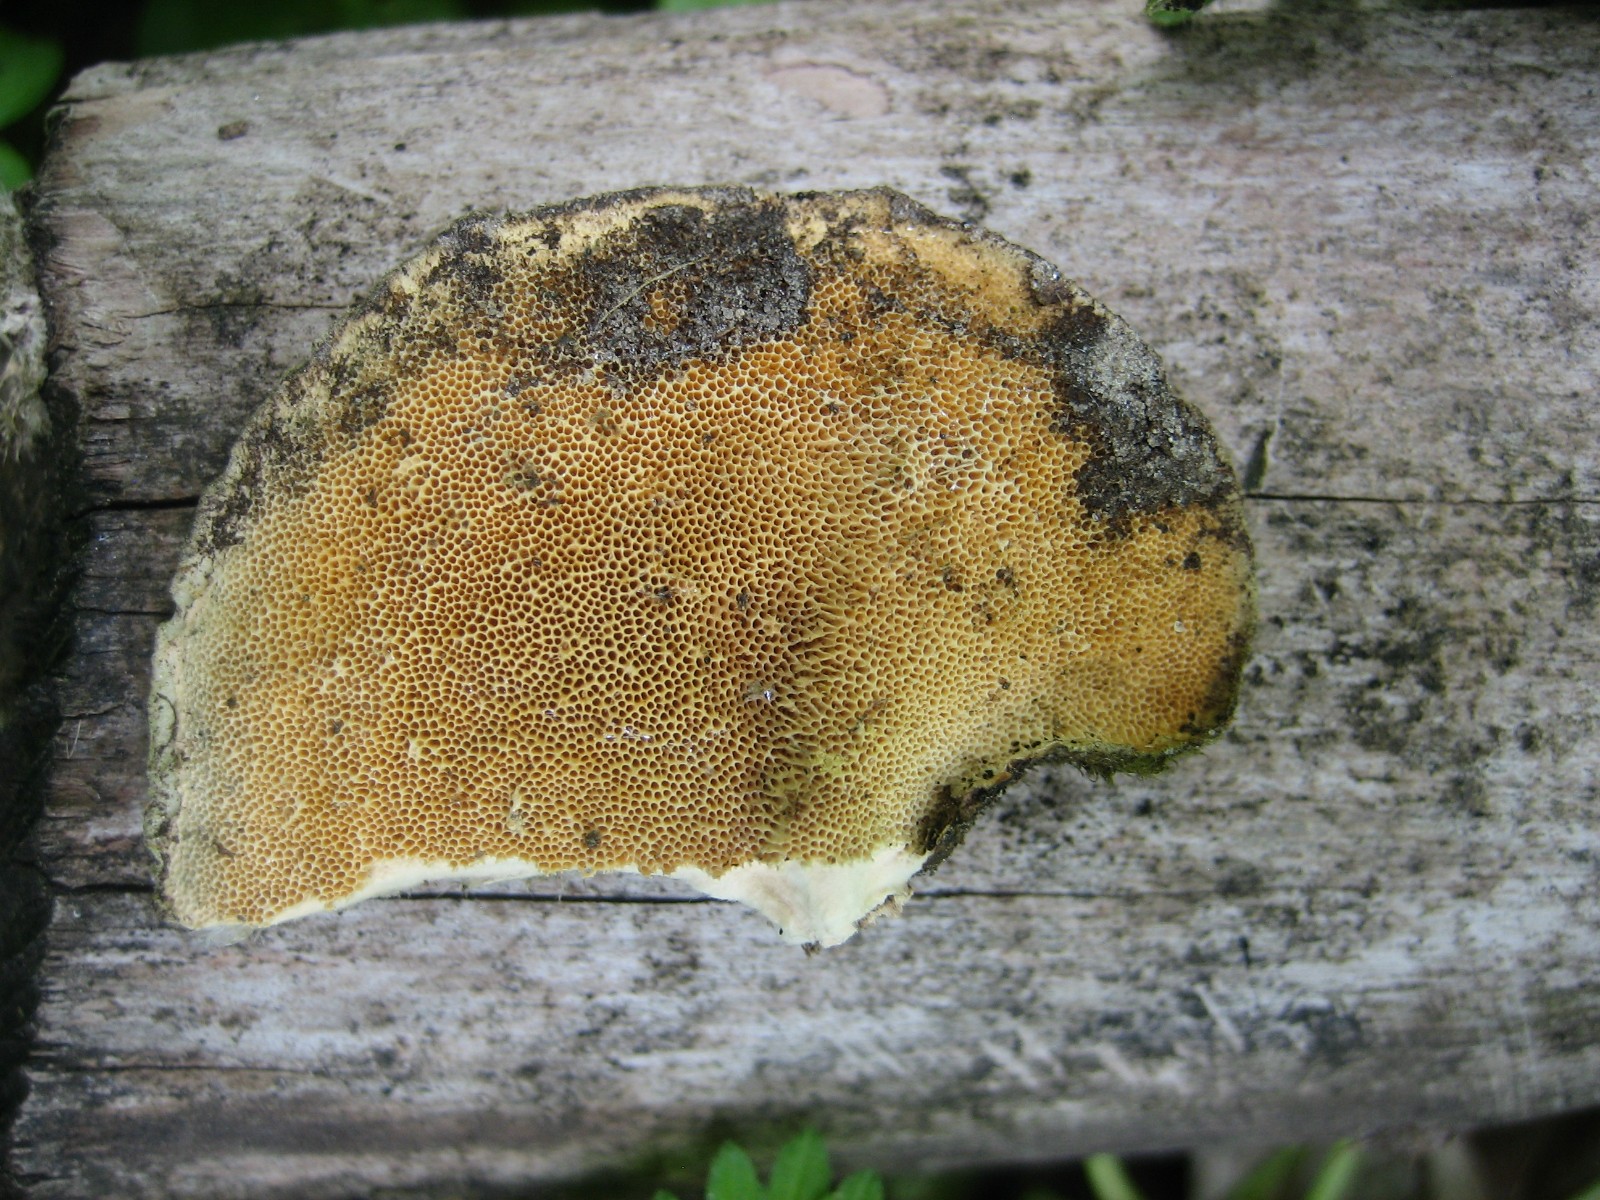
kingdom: Fungi
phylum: Basidiomycota
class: Agaricomycetes
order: Polyporales
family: Polyporaceae
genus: Trametes
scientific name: Trametes hirsuta
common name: håret læderporesvamp
